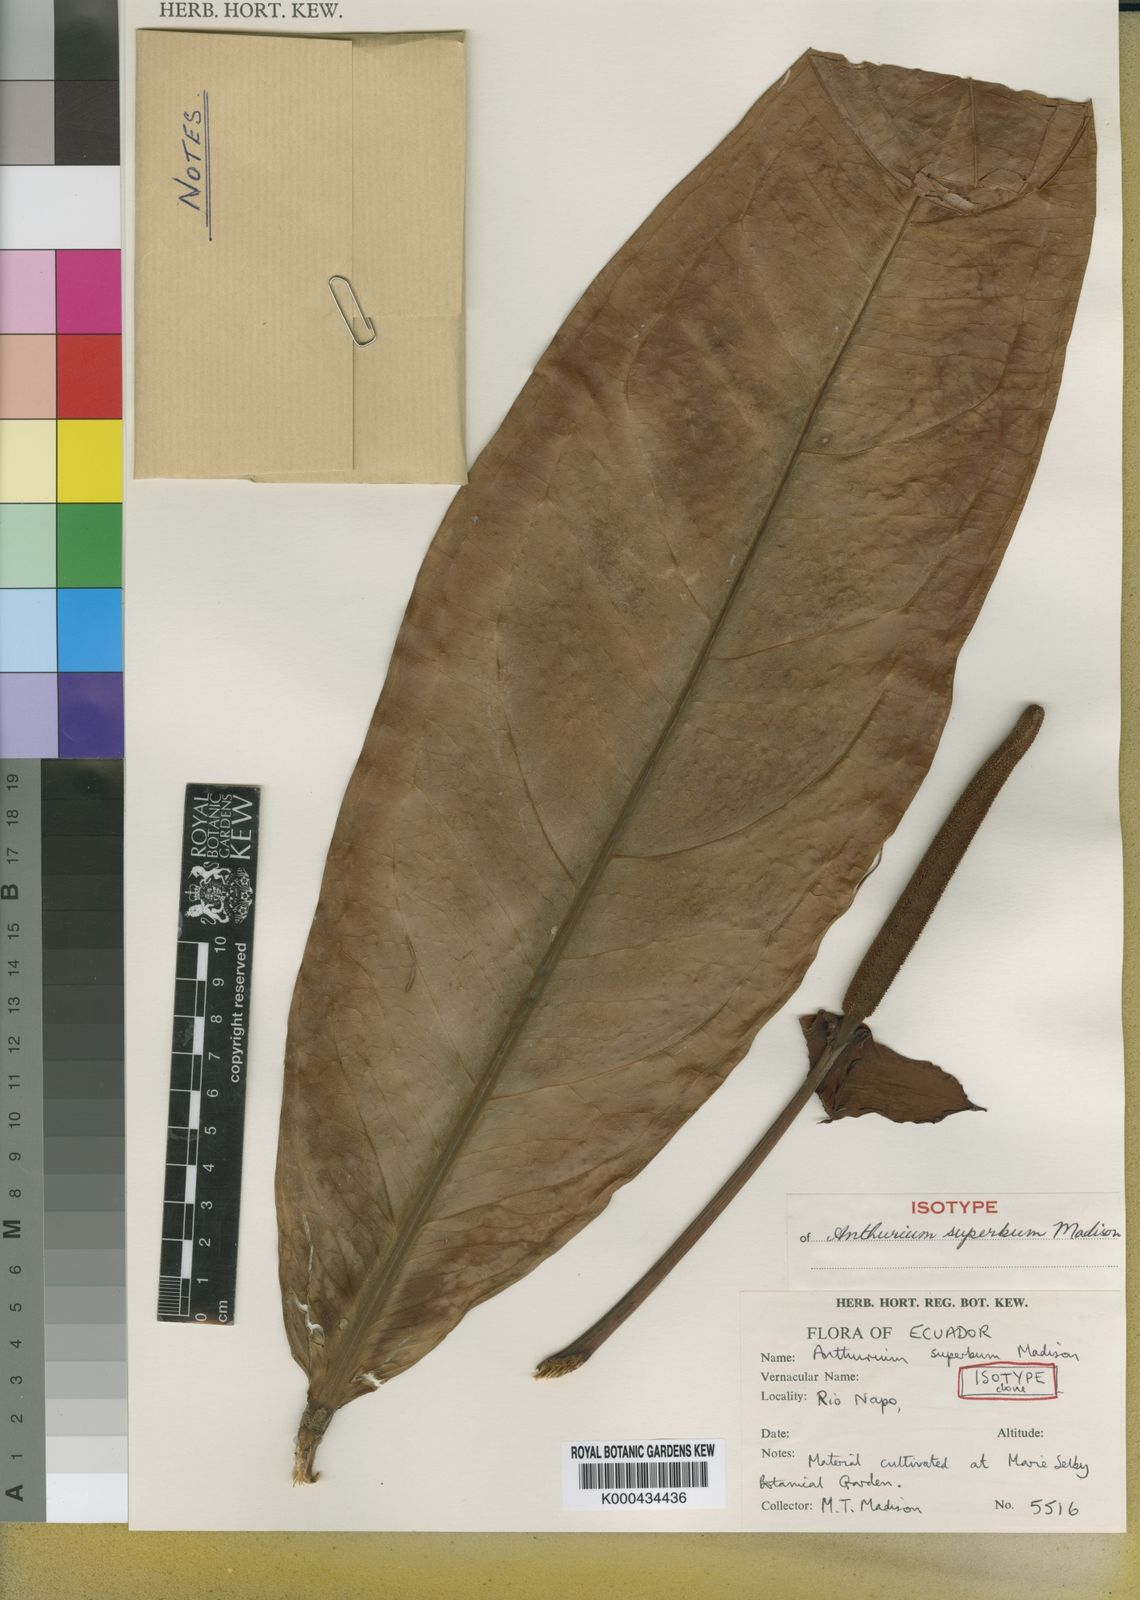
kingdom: Plantae
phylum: Tracheophyta
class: Liliopsida
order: Alismatales
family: Araceae
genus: Anthurium
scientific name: Anthurium superbum
